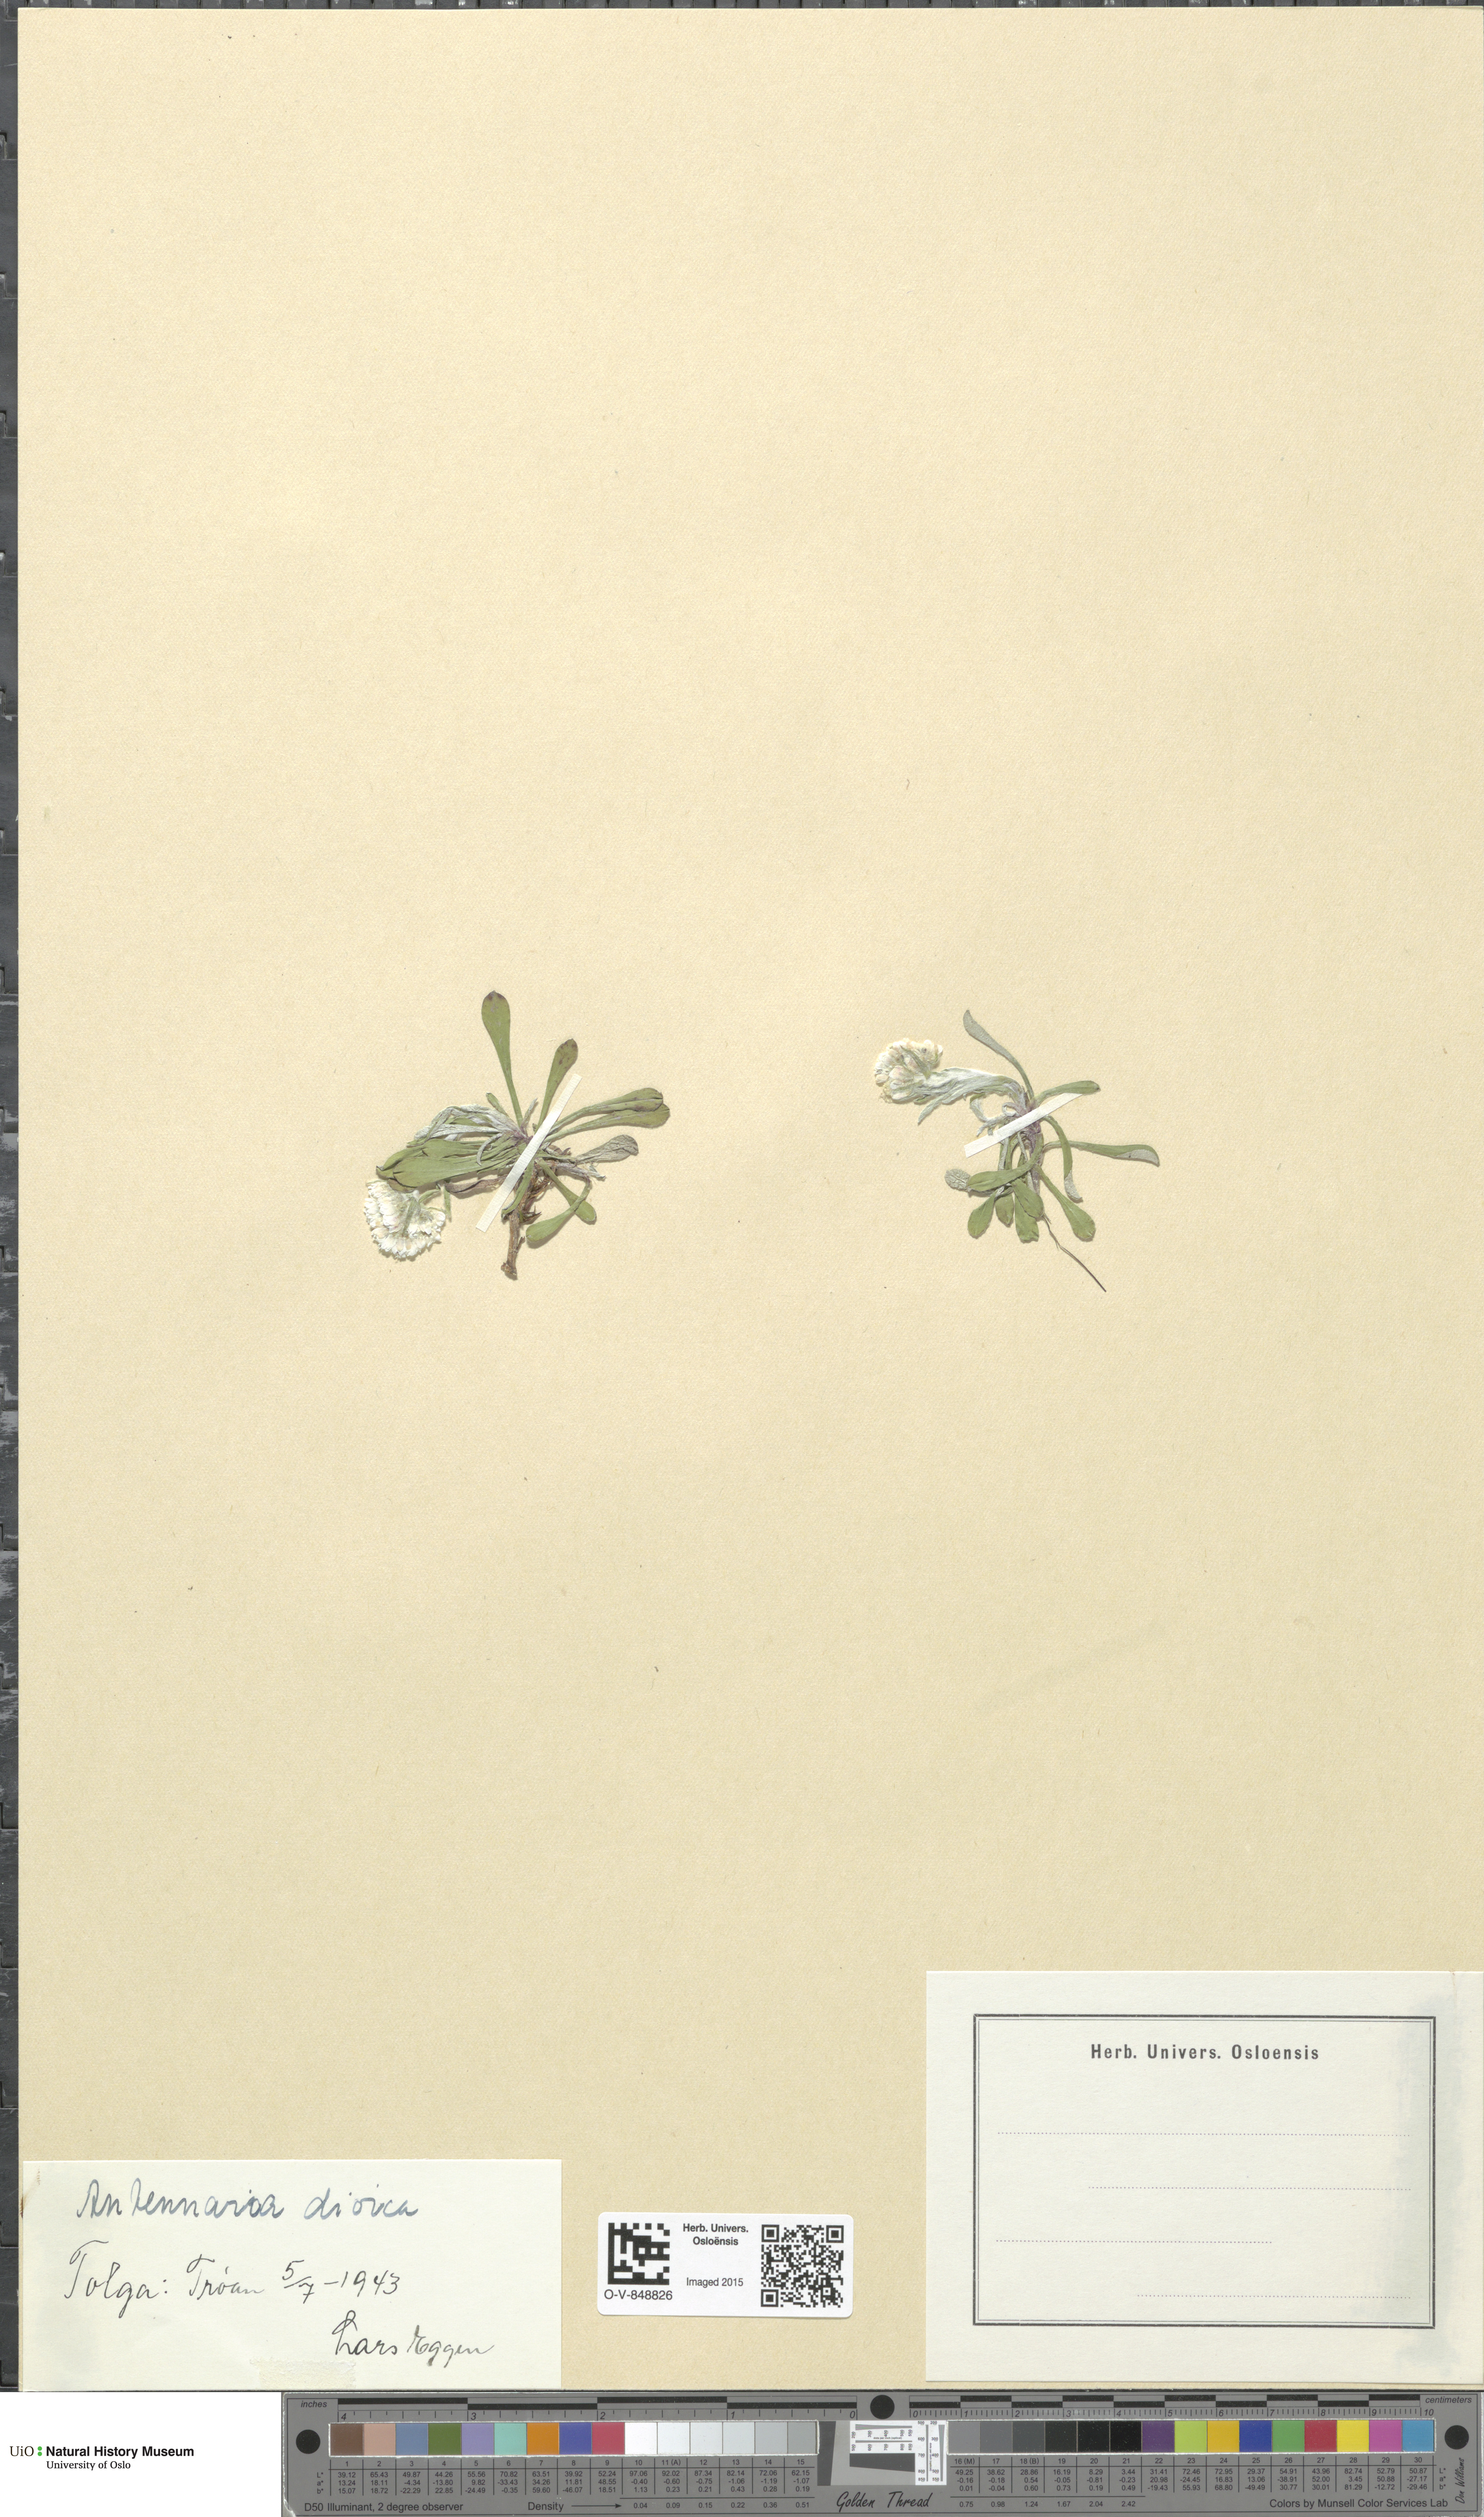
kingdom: Plantae
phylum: Tracheophyta
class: Magnoliopsida
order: Asterales
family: Asteraceae
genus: Antennaria
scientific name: Antennaria dioica
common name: Mountain everlasting
